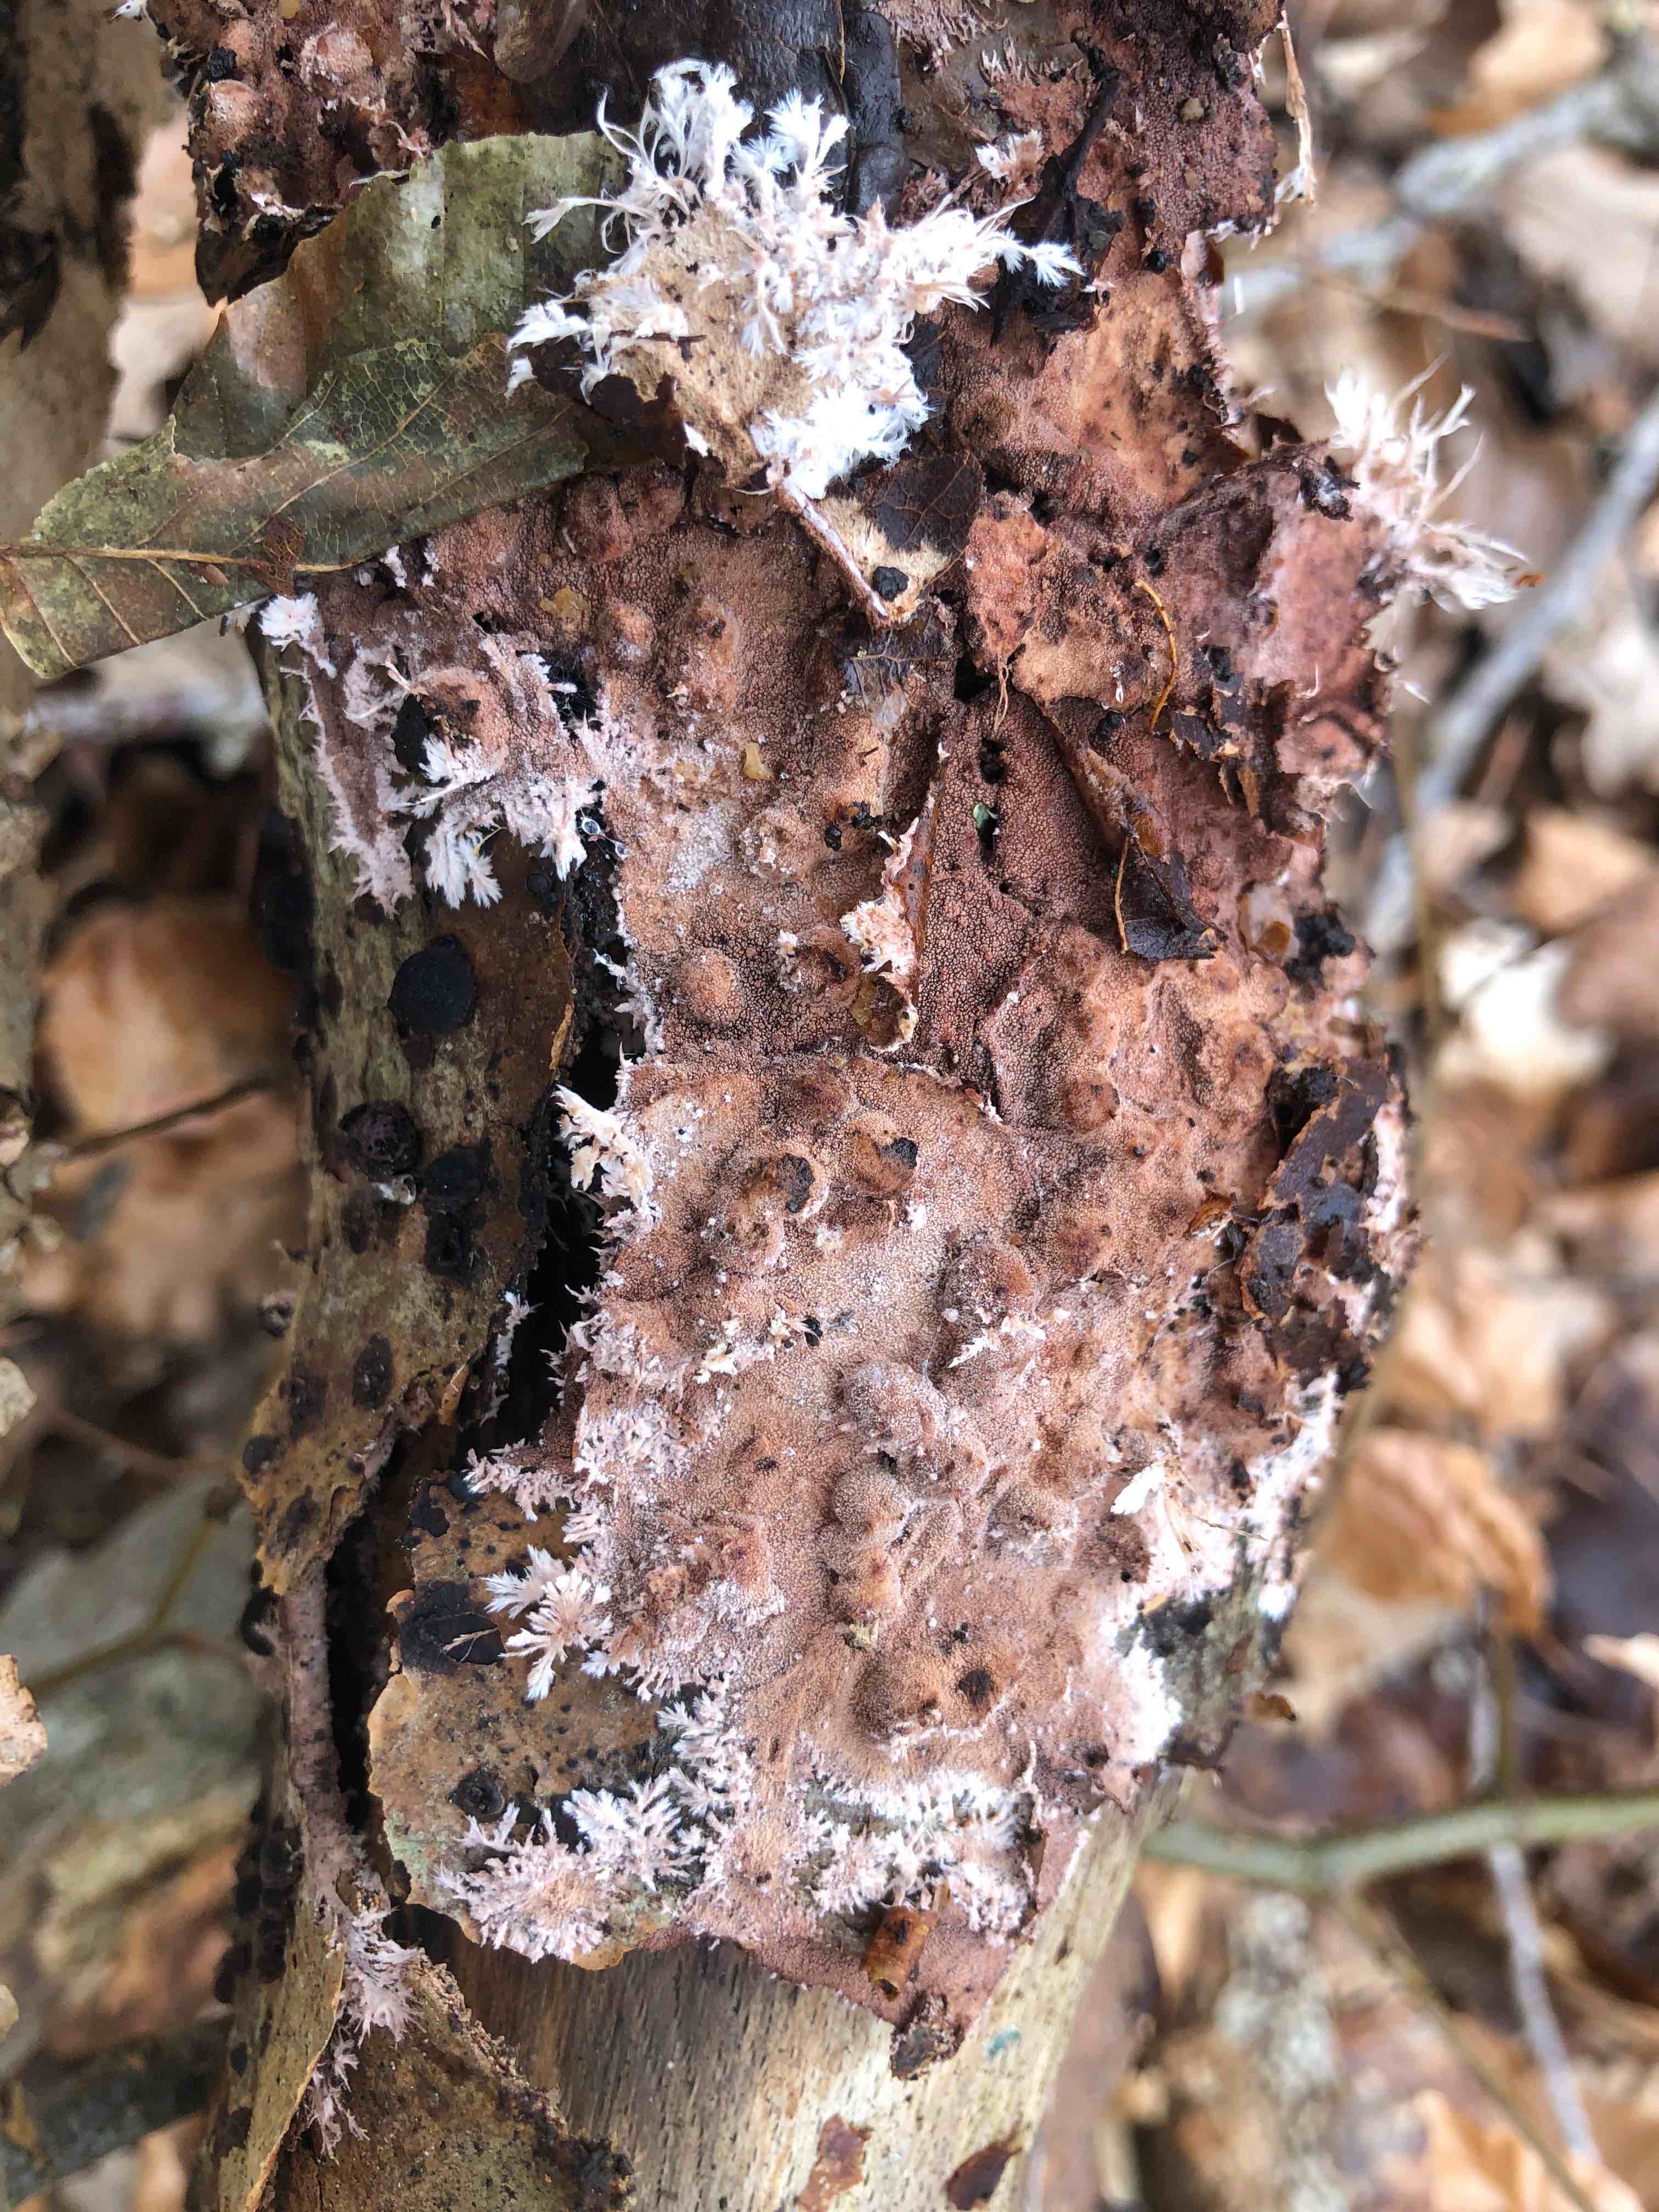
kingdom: Fungi
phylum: Basidiomycota
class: Agaricomycetes
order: Polyporales
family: Steccherinaceae
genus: Steccherinum
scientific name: Steccherinum fimbriatum
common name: trådet skønpig
